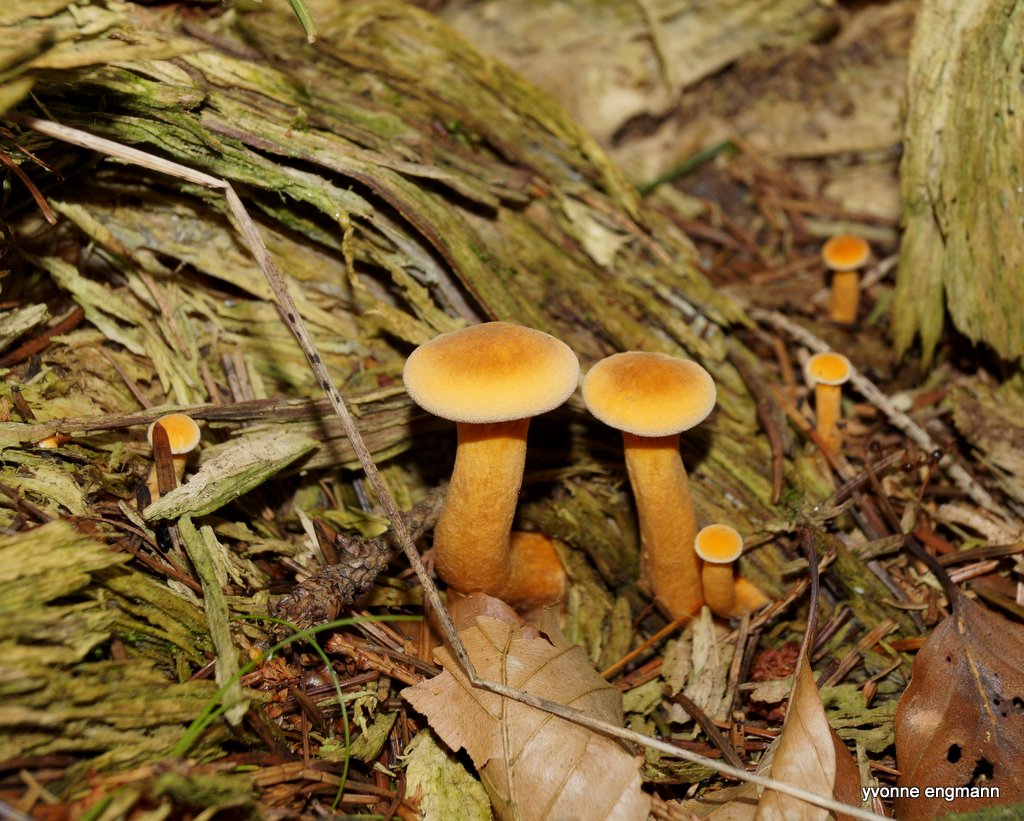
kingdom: Fungi
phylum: Basidiomycota
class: Agaricomycetes
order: Boletales
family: Hygrophoropsidaceae
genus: Hygrophoropsis
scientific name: Hygrophoropsis aurantiaca
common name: almindelig orangekantarel
